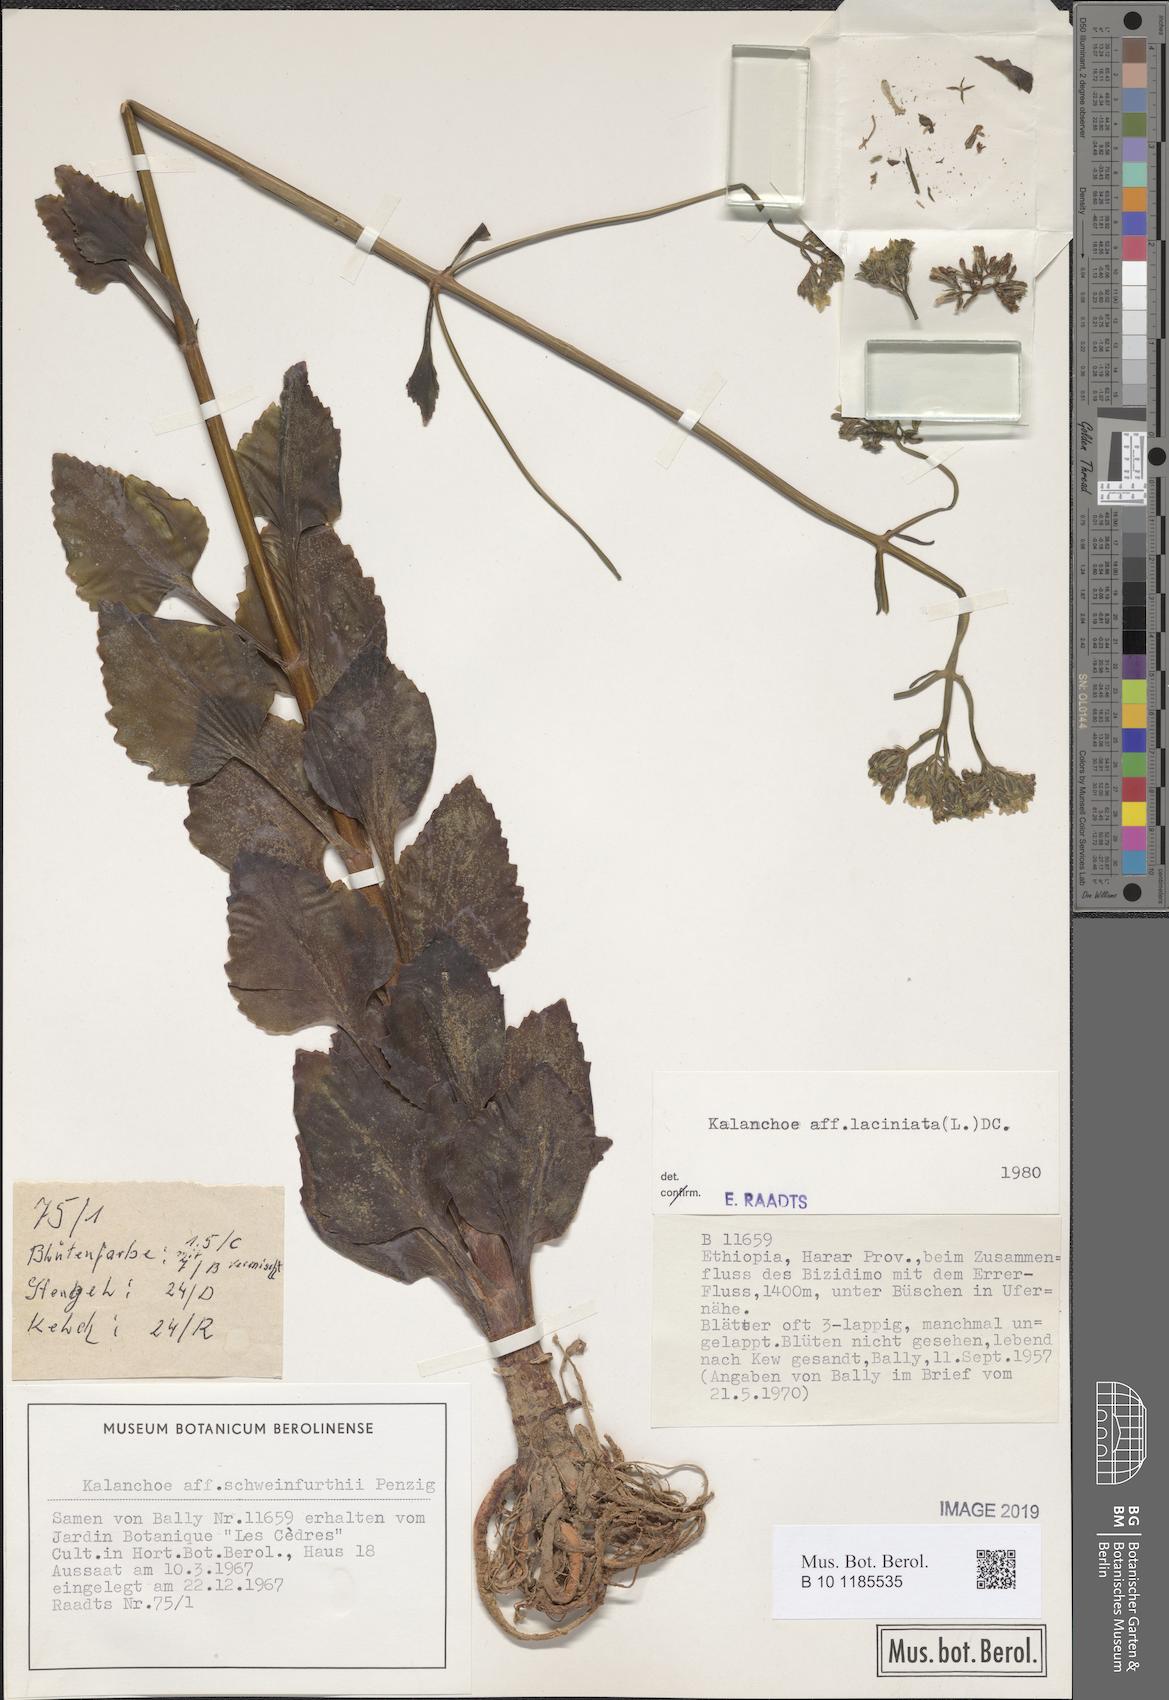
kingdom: Plantae
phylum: Tracheophyta
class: Magnoliopsida
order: Saxifragales
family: Crassulaceae
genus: Kalanchoe
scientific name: Kalanchoe laciniata
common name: Christmastree plant
